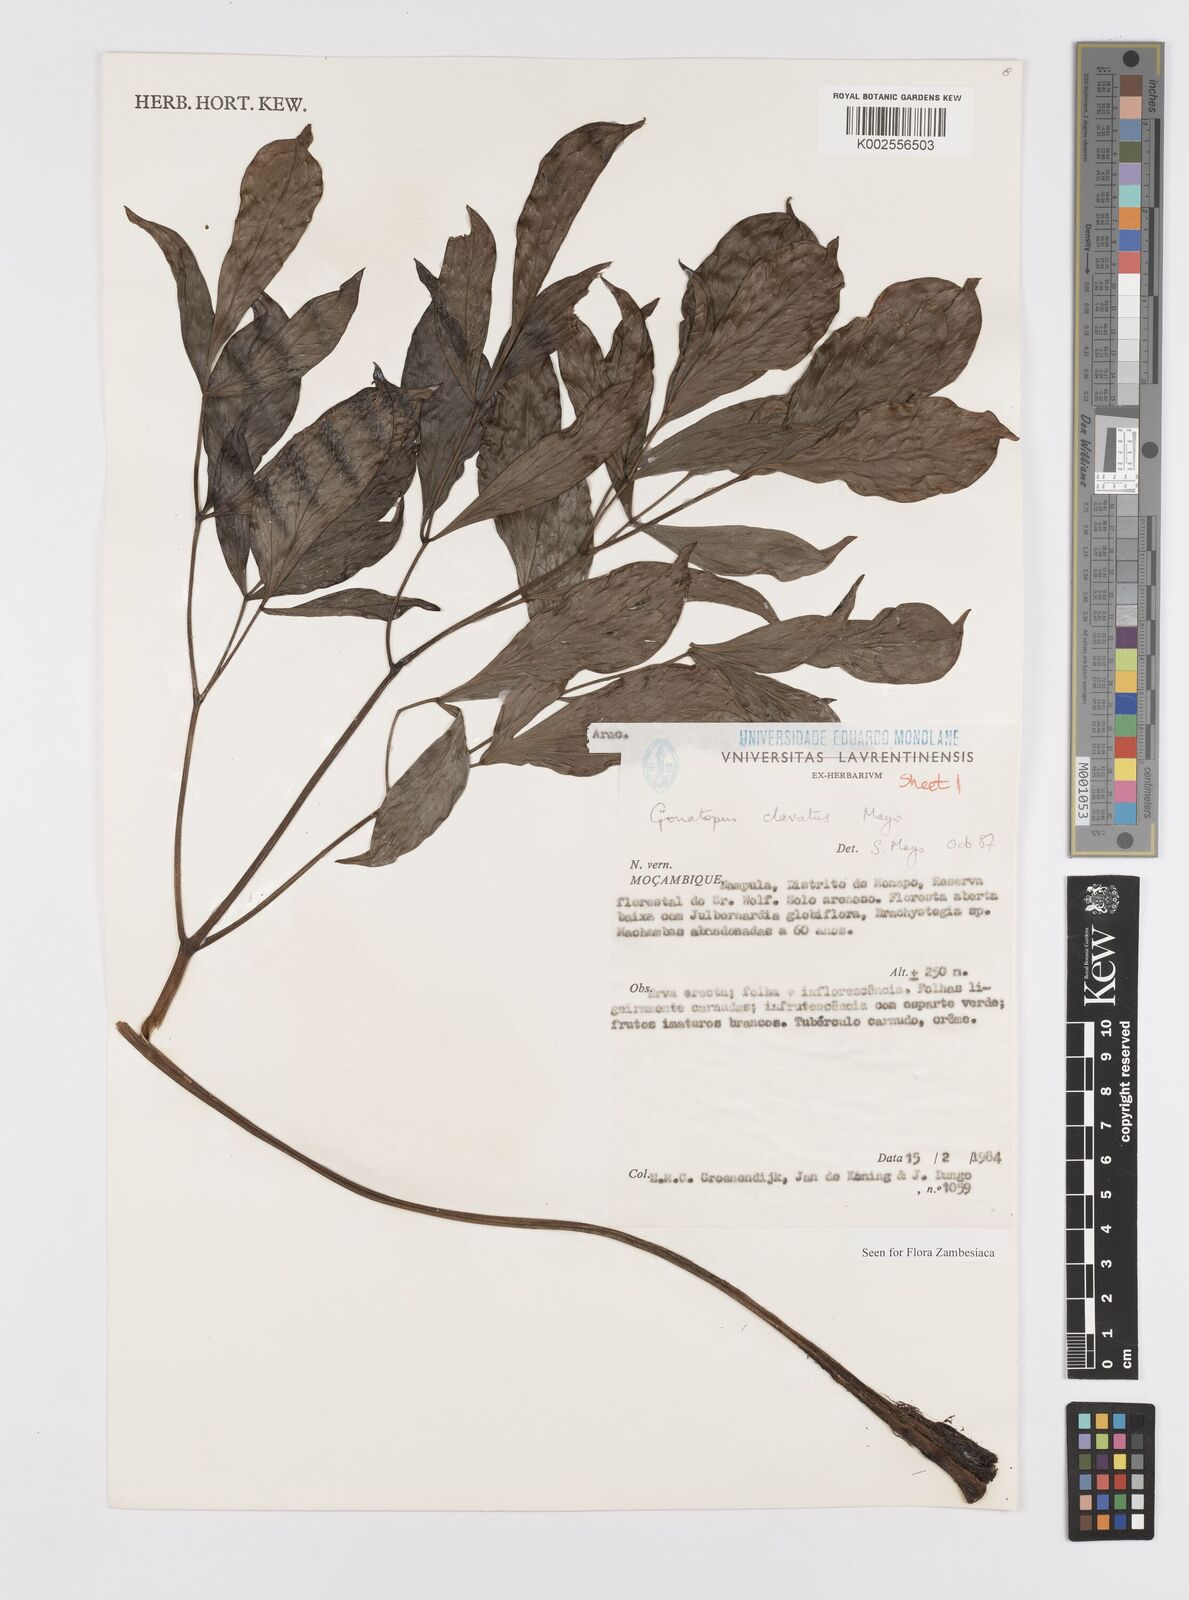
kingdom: Plantae
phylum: Tracheophyta
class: Liliopsida
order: Alismatales
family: Araceae
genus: Gonatopus
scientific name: Gonatopus clavatus
